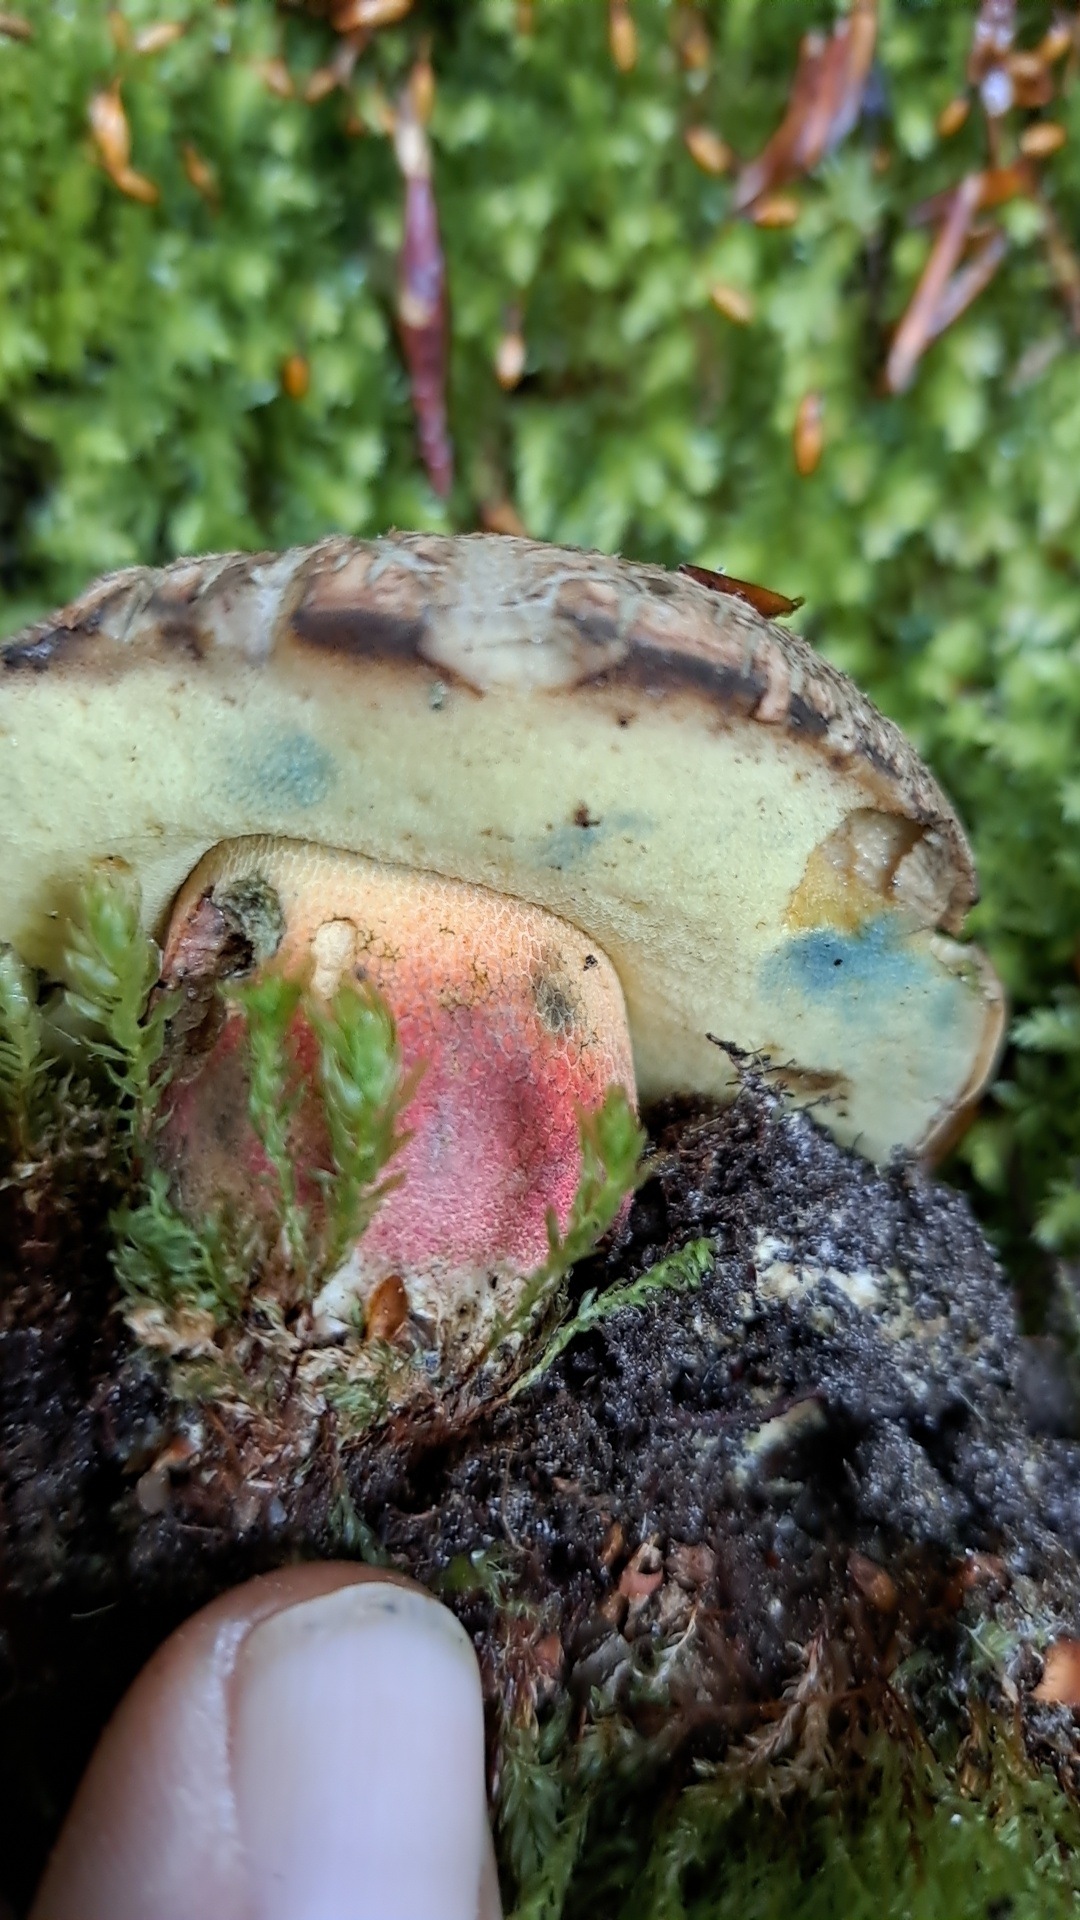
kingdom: Fungi
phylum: Basidiomycota
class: Agaricomycetes
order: Boletales
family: Boletaceae
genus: Caloboletus
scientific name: Caloboletus calopus
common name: skønfodet rørhat
